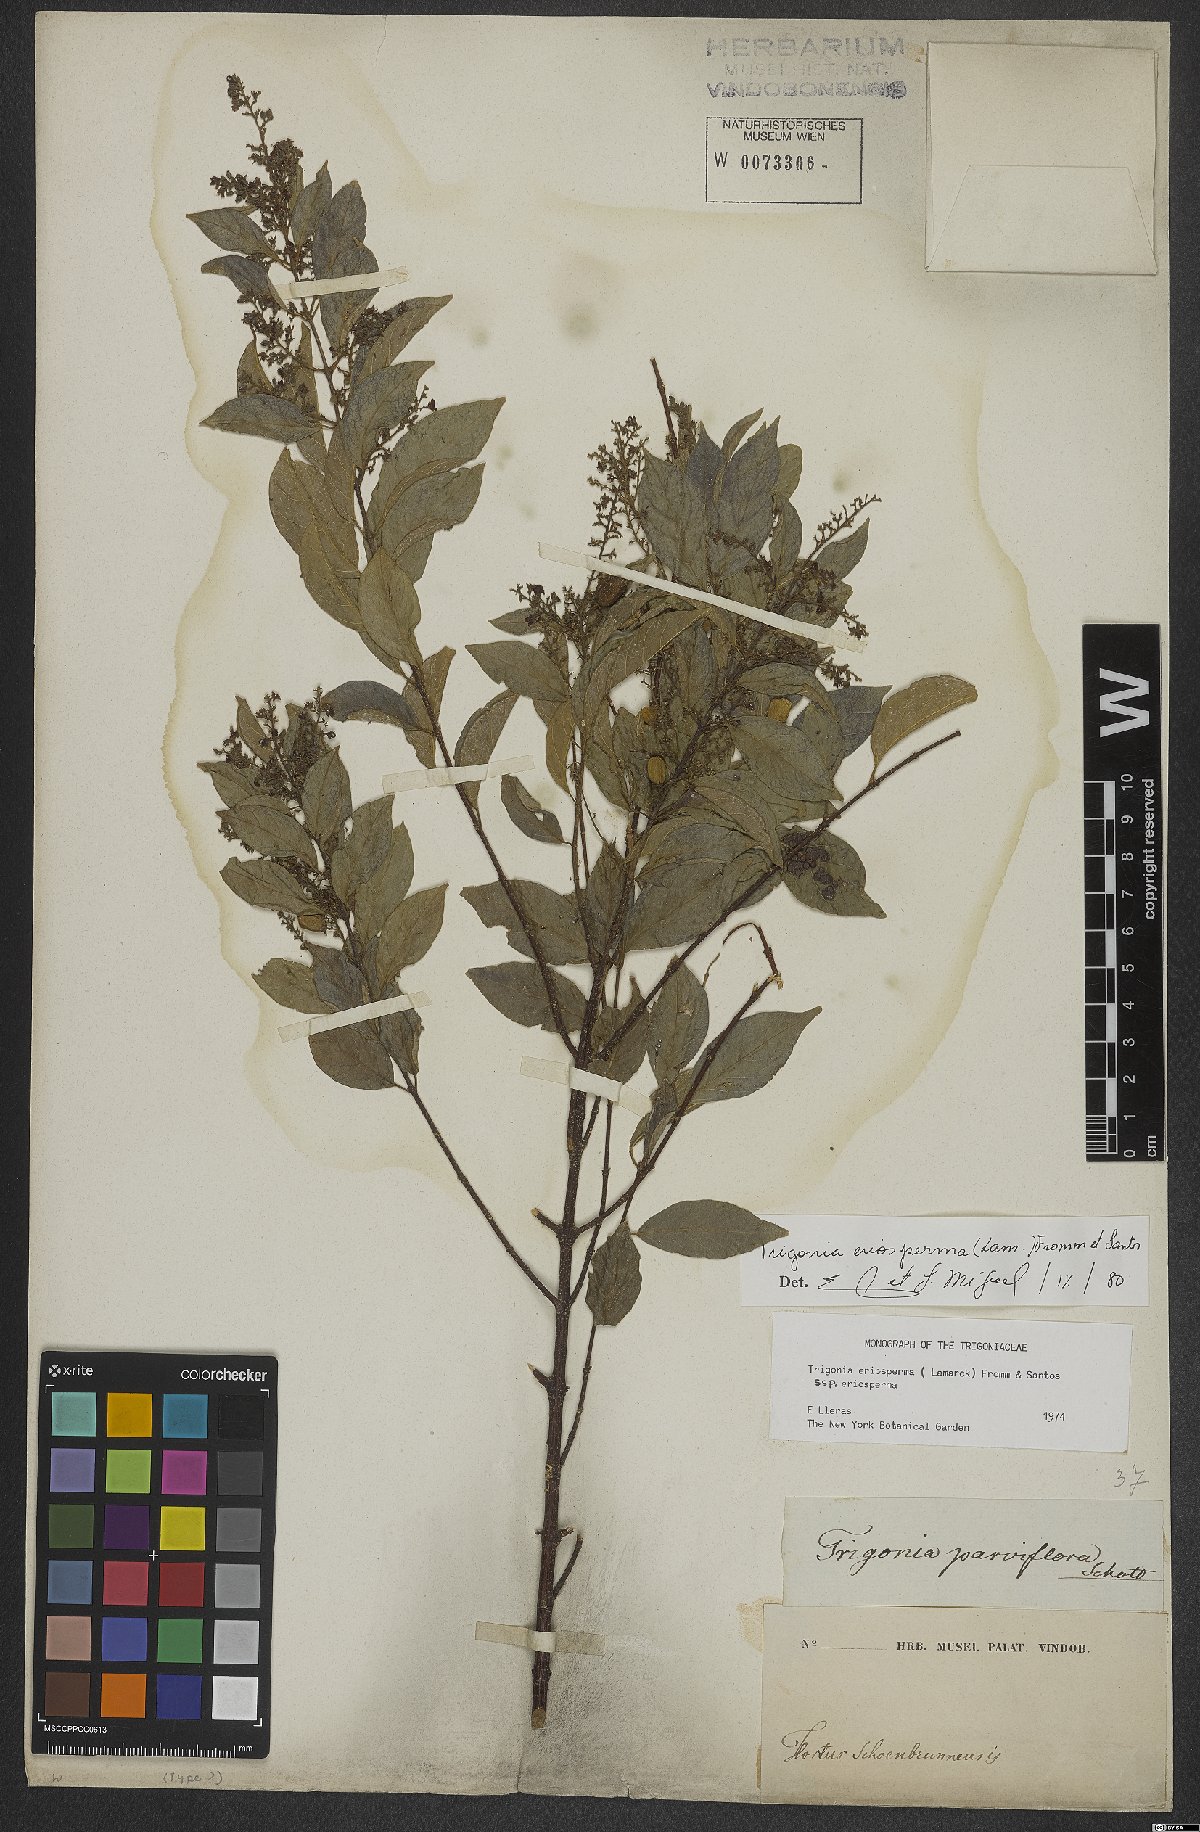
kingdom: Plantae
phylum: Tracheophyta
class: Magnoliopsida
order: Malpighiales
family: Trigoniaceae
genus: Trigonia
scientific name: Trigonia eriosperma
